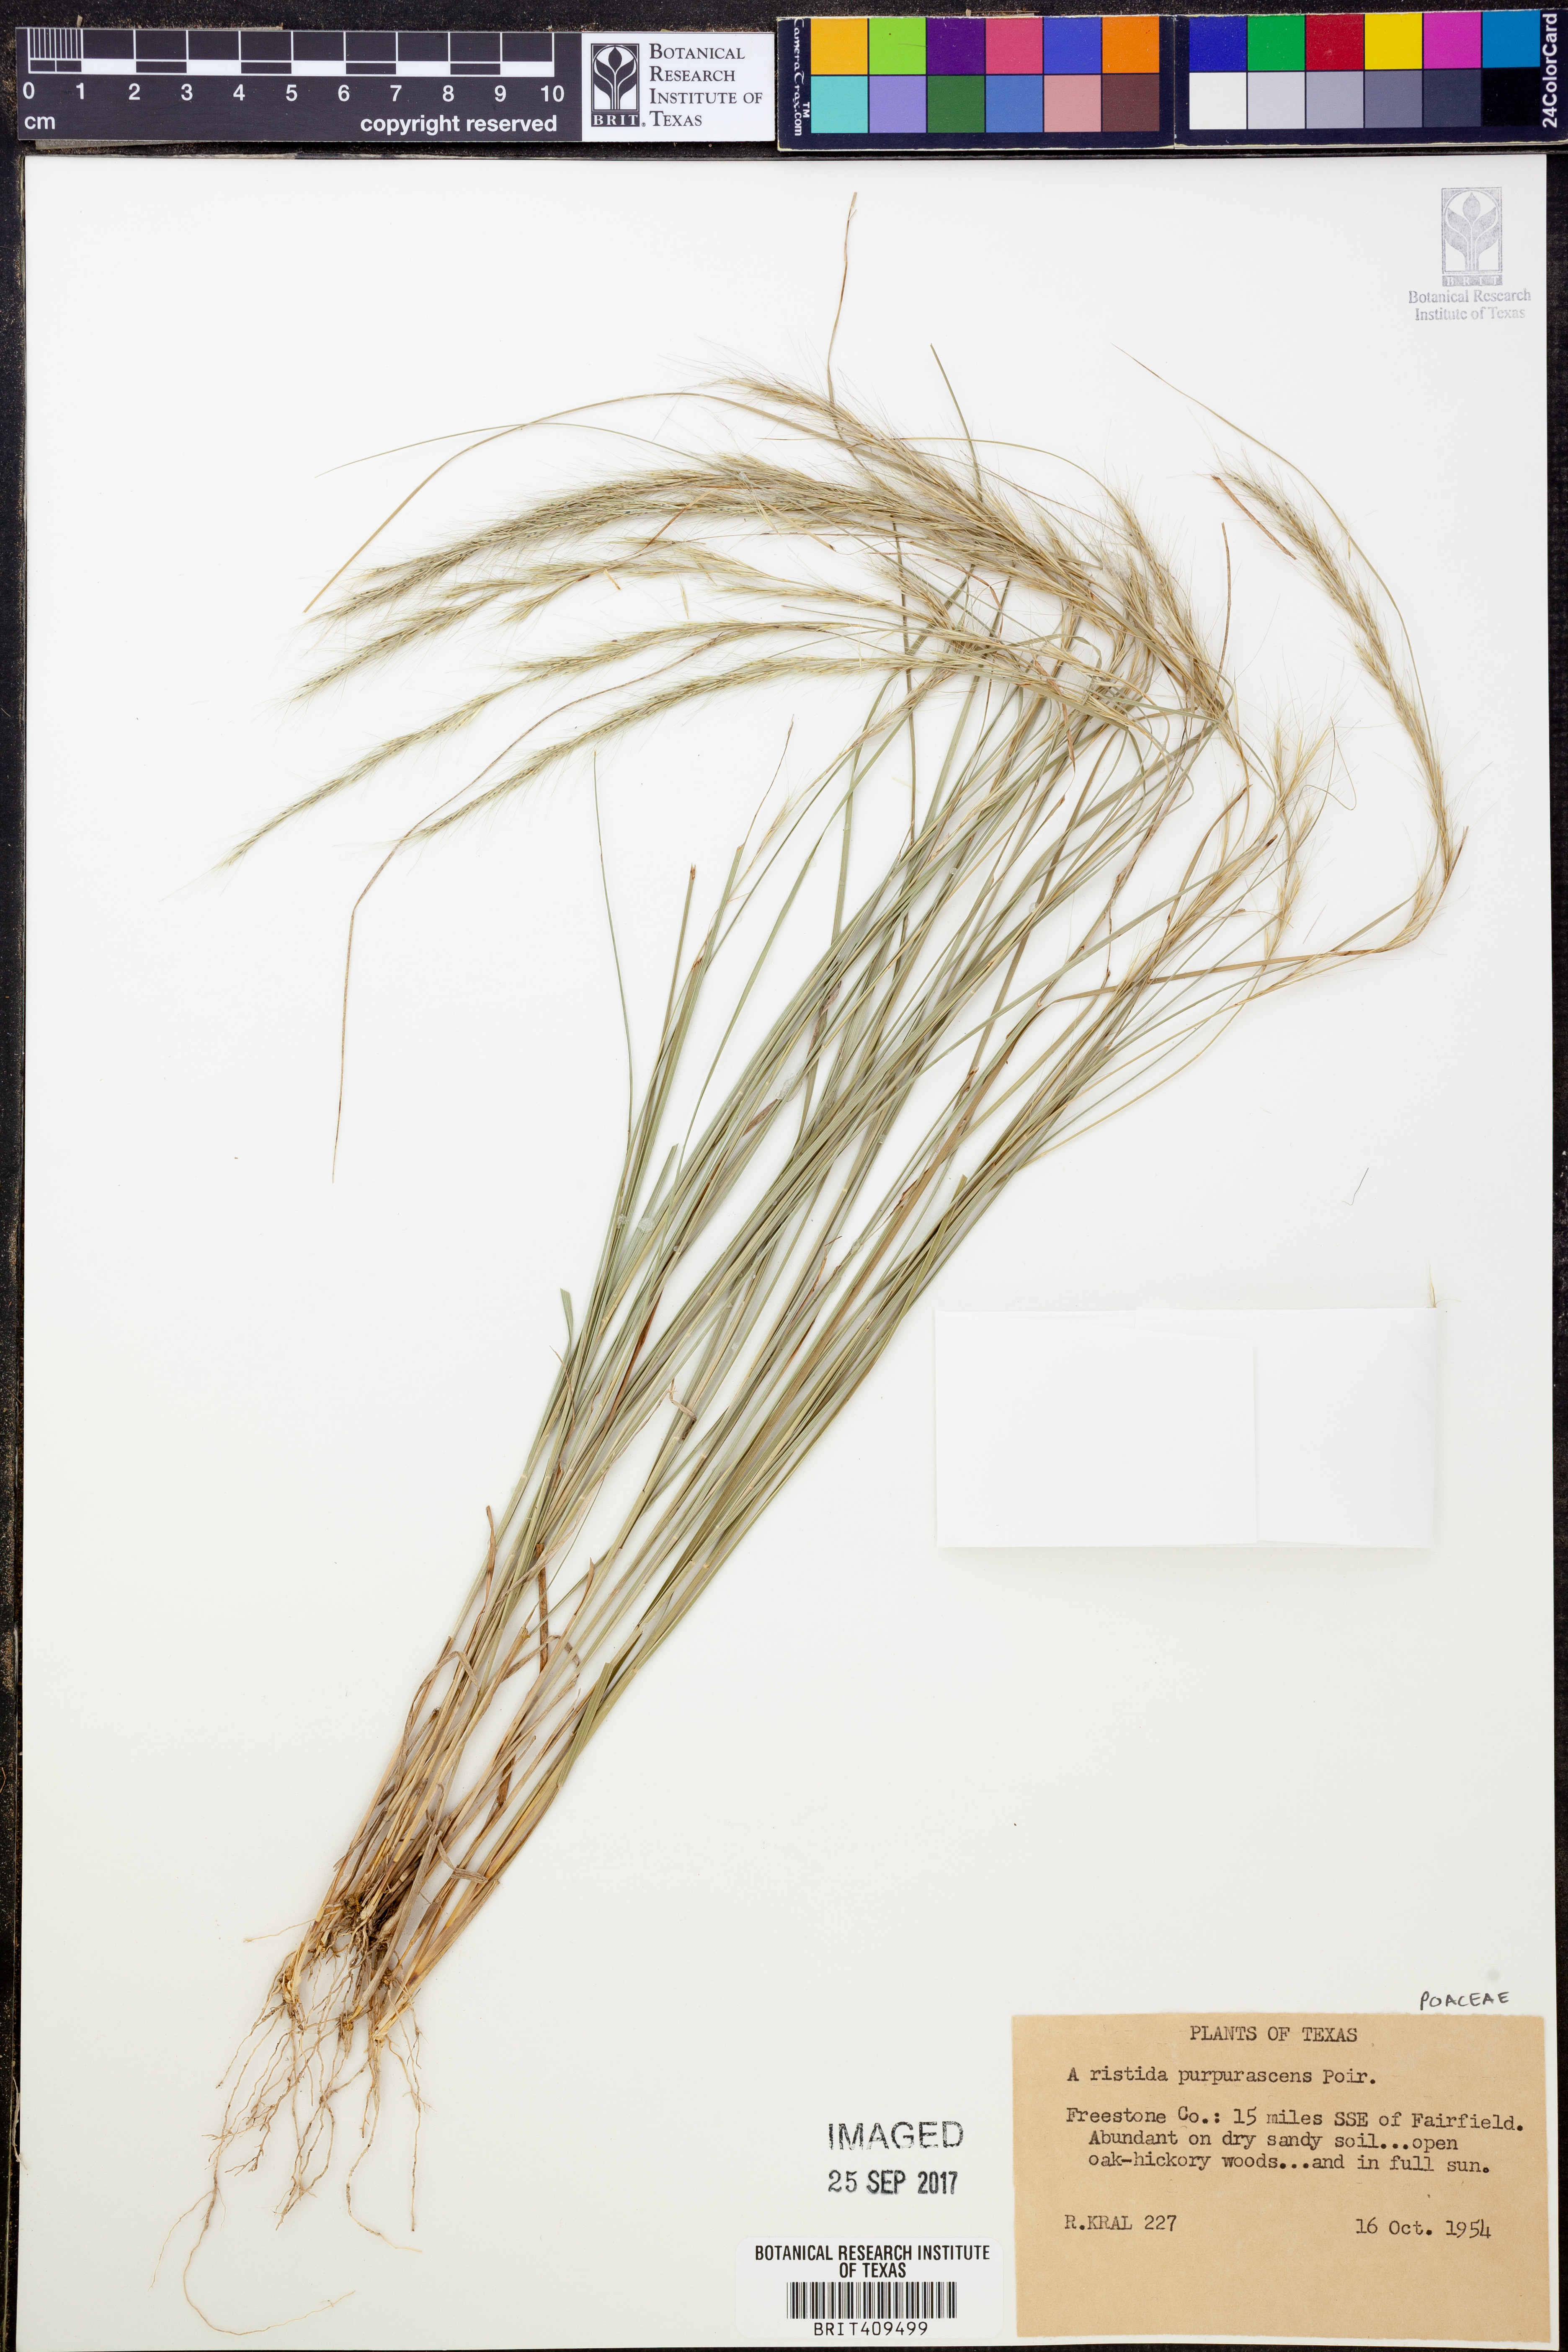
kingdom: Plantae
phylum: Tracheophyta
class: Liliopsida
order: Poales
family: Poaceae
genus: Aristida
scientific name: Aristida purpurascens
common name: Arrow-feather
